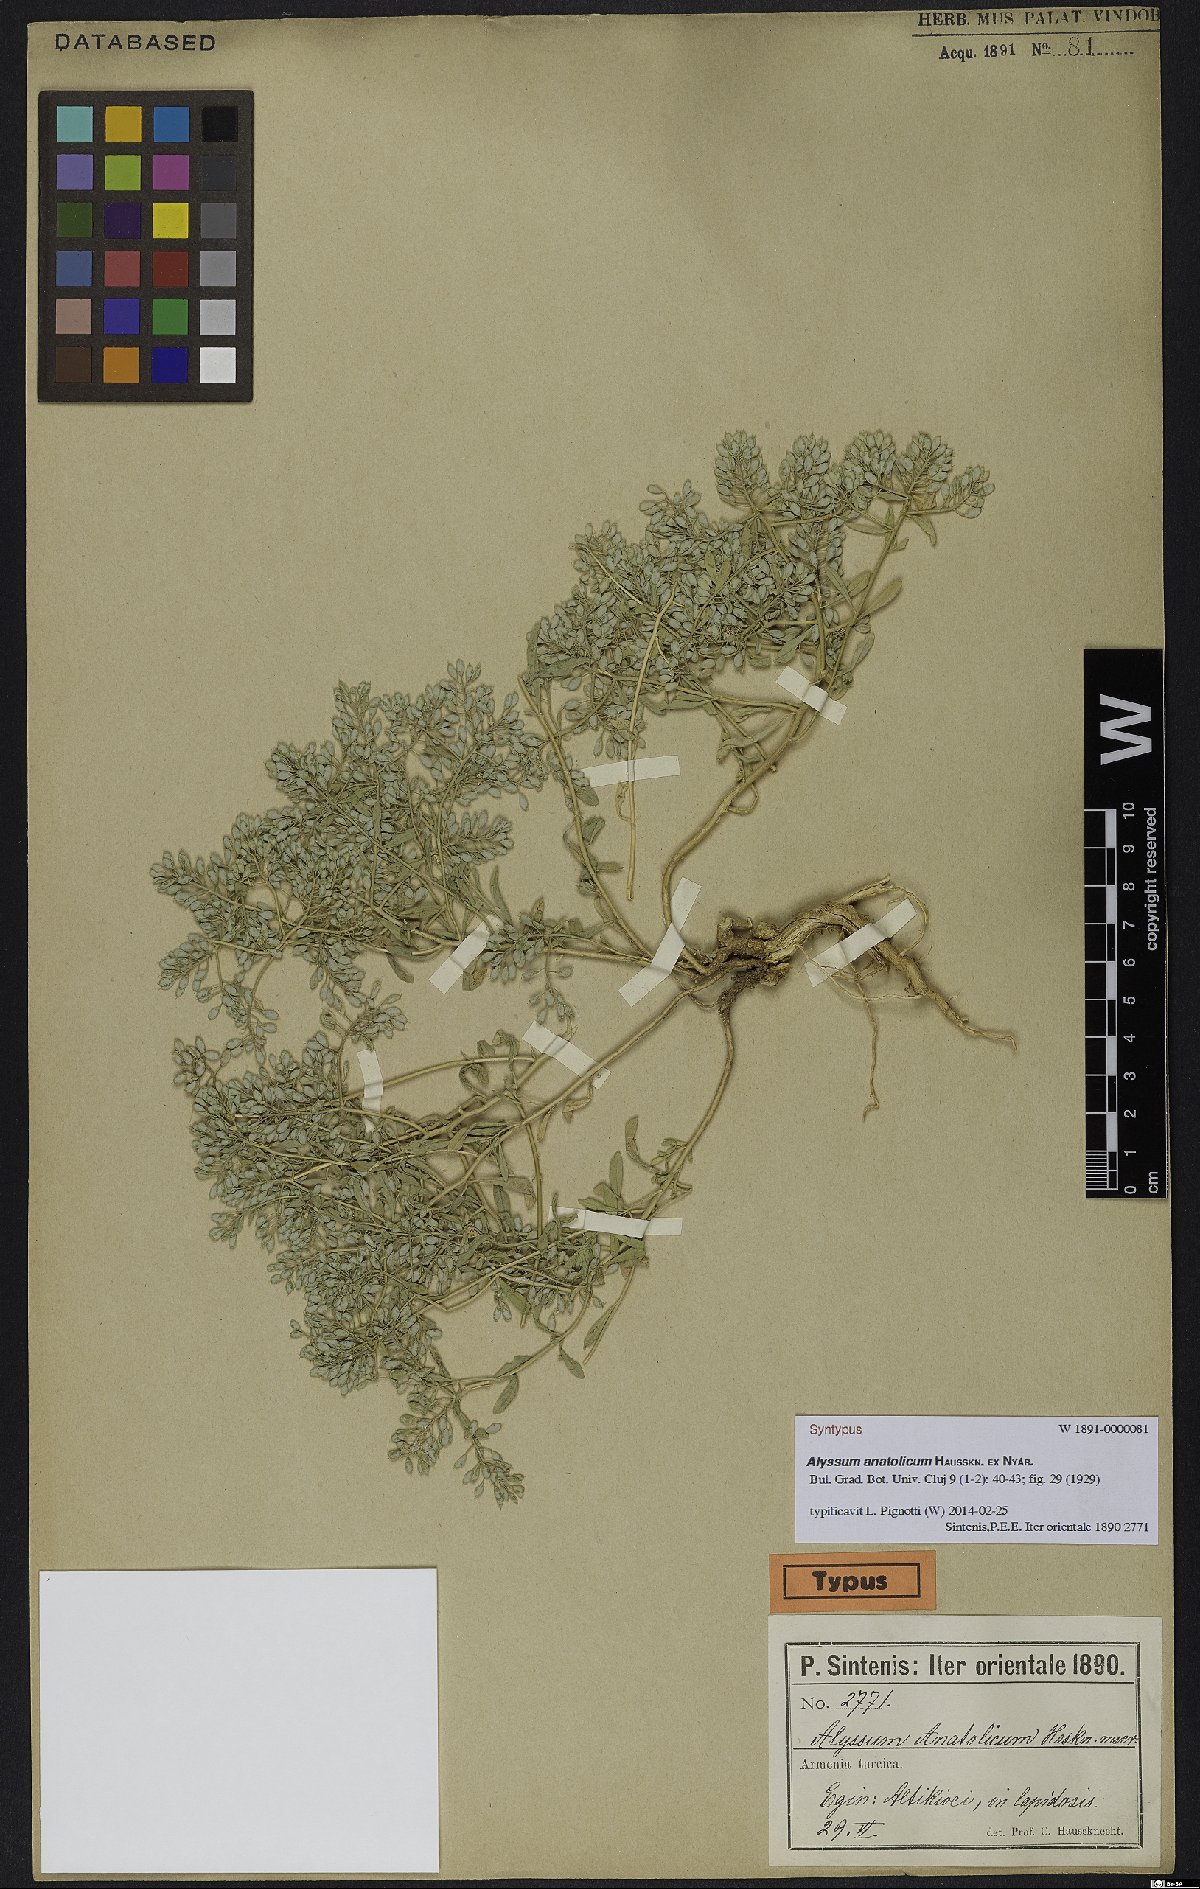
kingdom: Plantae
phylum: Tracheophyta
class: Magnoliopsida
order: Brassicales
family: Brassicaceae
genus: Odontarrhena
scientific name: Odontarrhena anatolica
